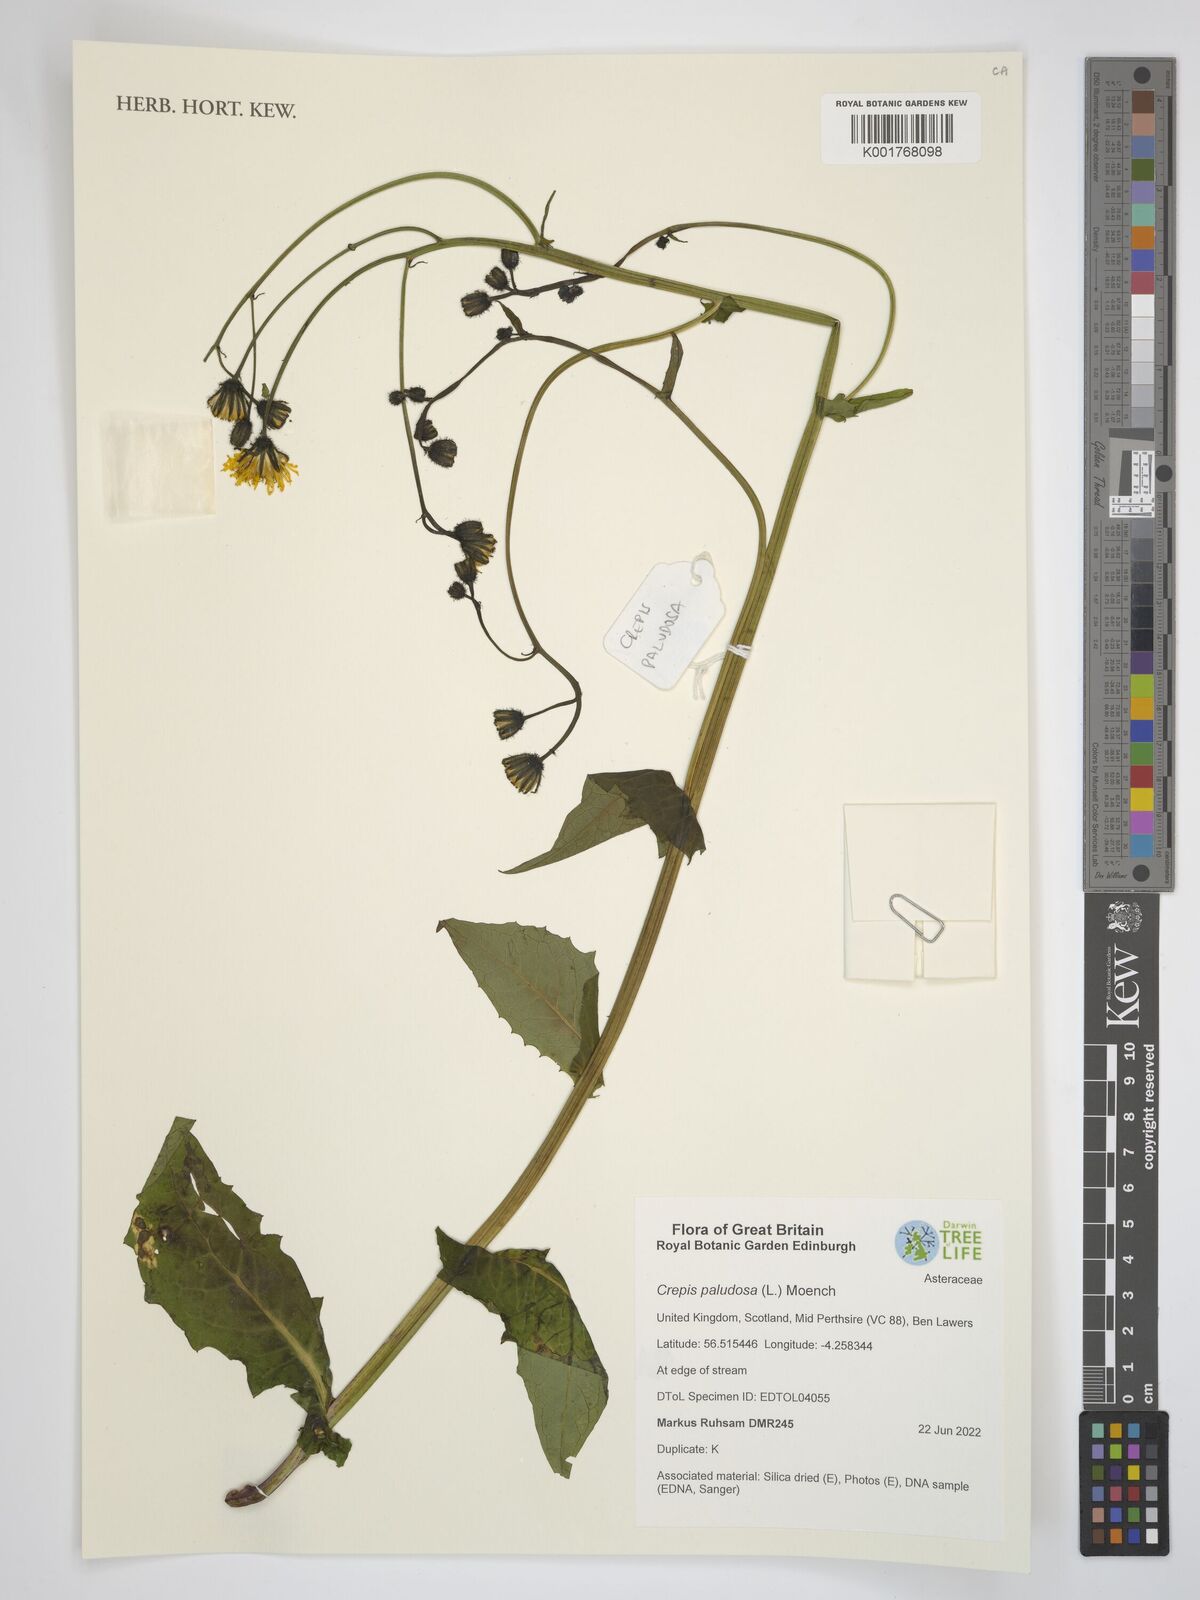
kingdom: Plantae
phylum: Tracheophyta
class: Magnoliopsida
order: Asterales
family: Asteraceae
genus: Crepis
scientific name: Crepis paludosa
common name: Marsh hawk's-beard
